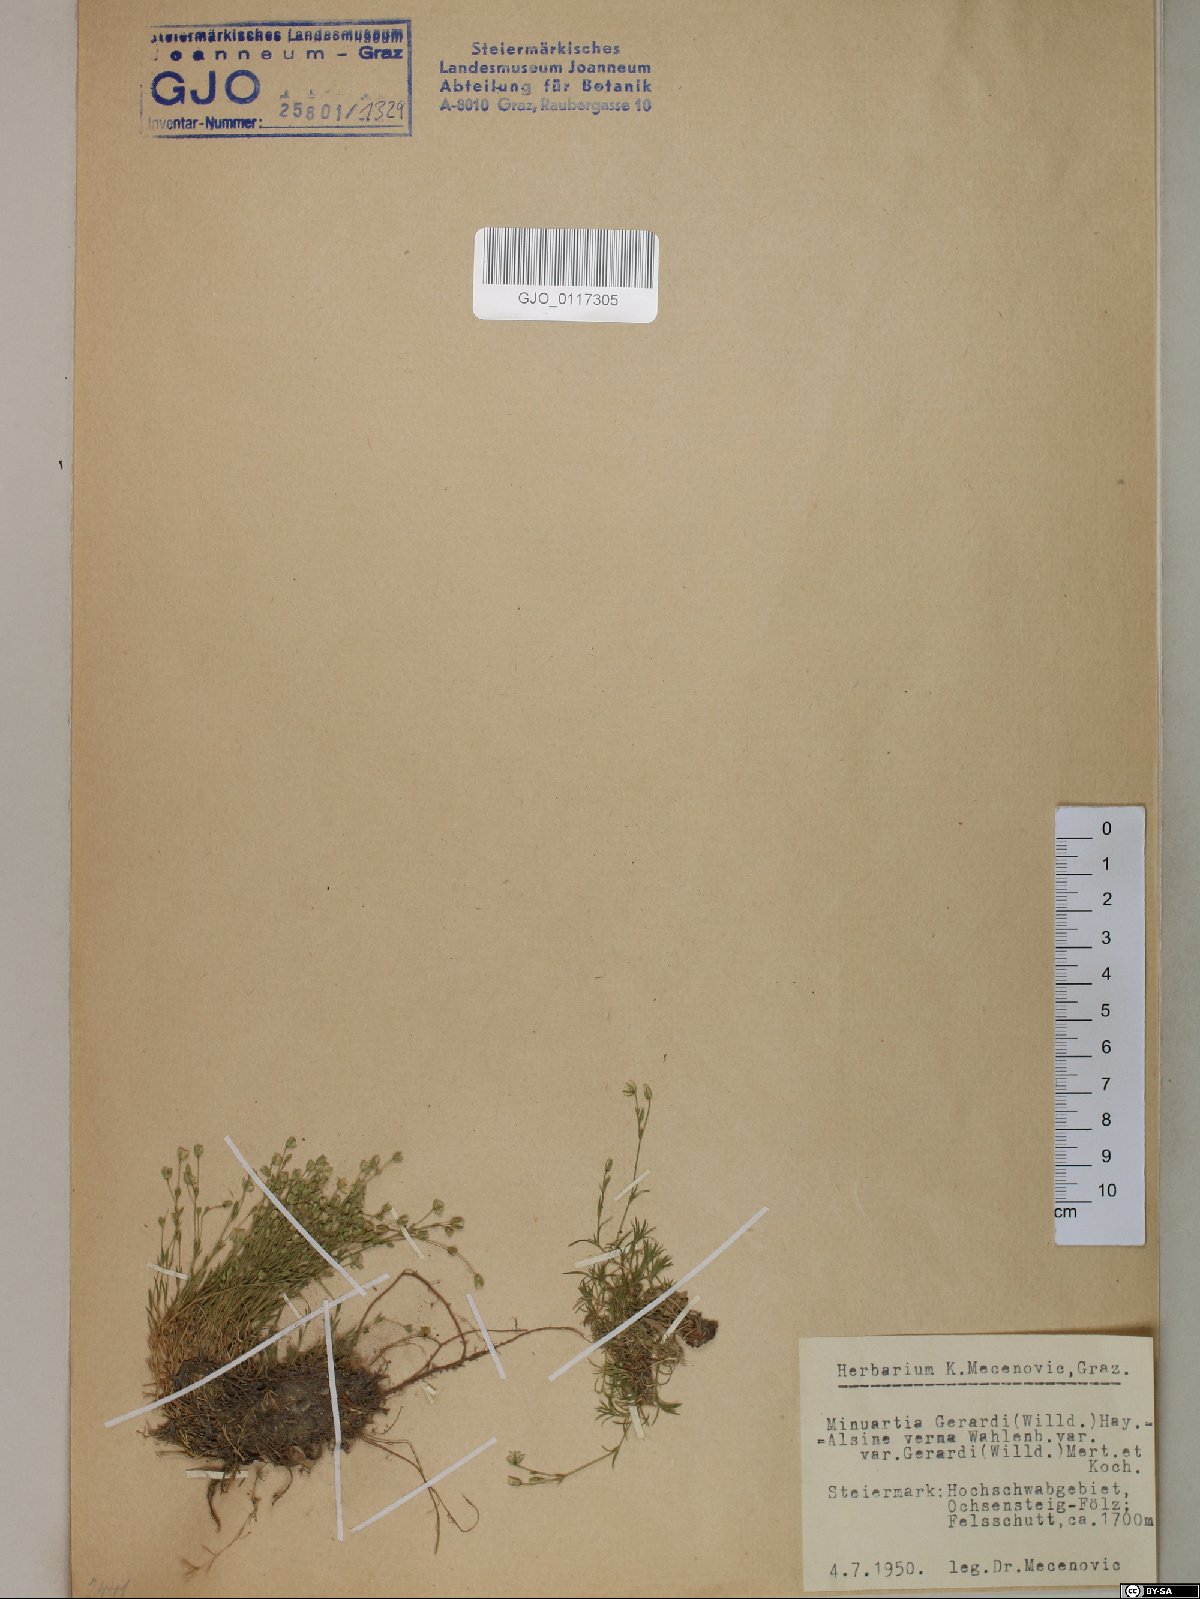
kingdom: Plantae
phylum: Tracheophyta
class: Magnoliopsida
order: Caryophyllales
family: Caryophyllaceae
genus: Sabulina
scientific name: Sabulina verna
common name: Spring sandwort
